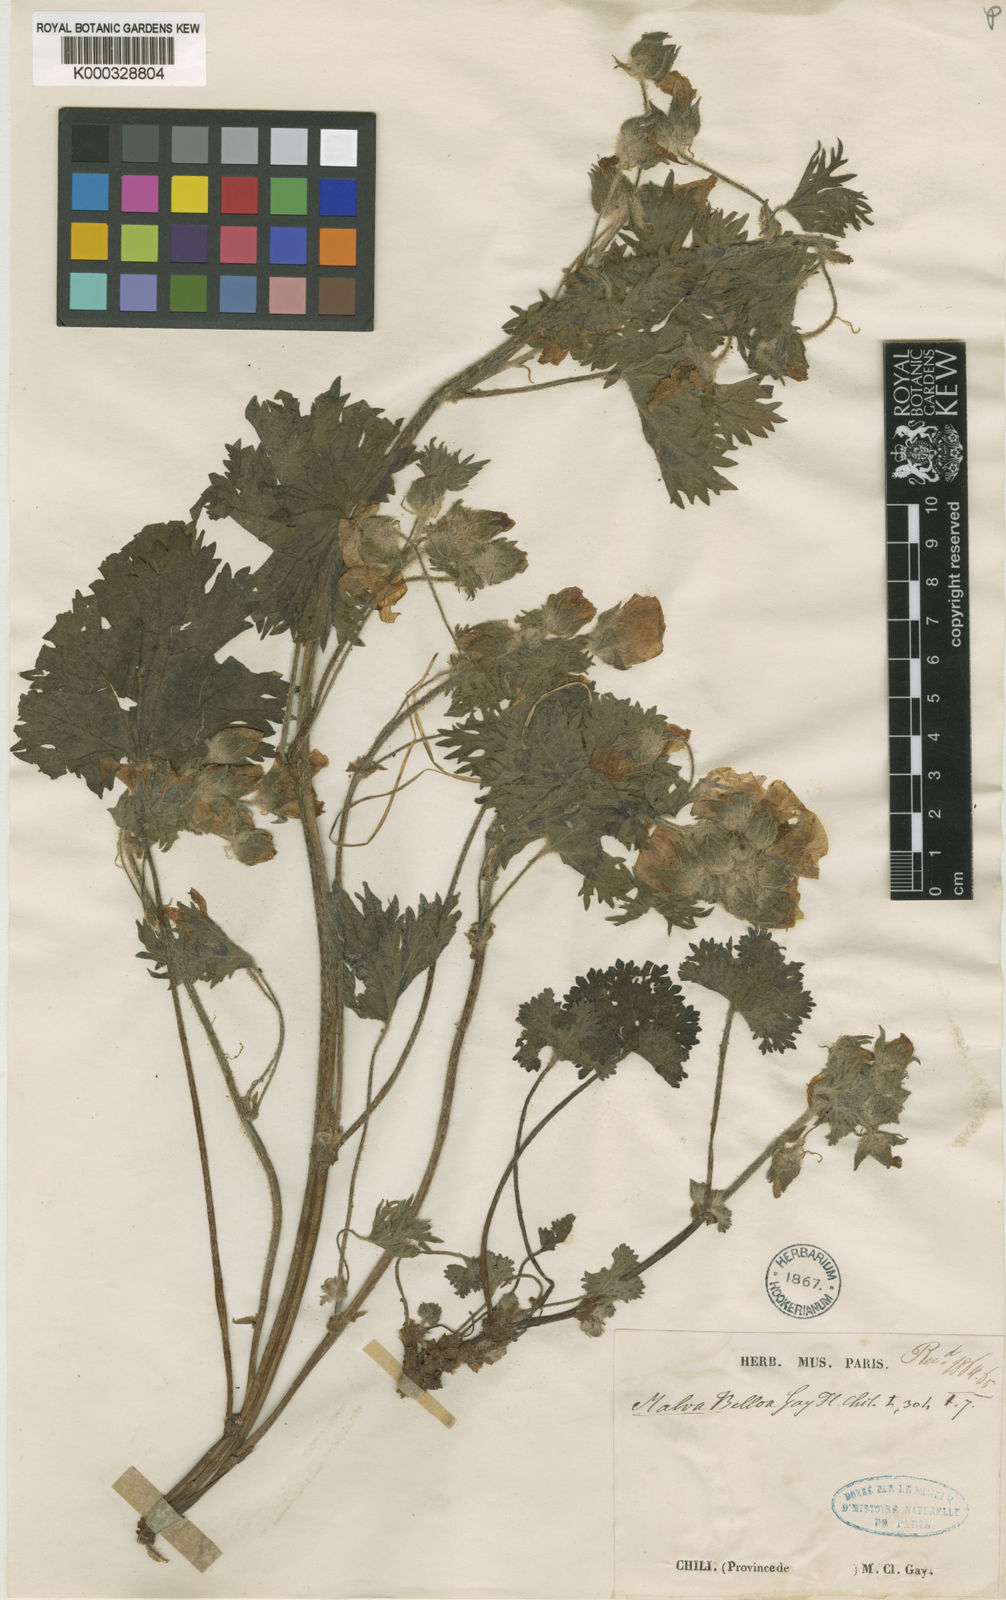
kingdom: Plantae
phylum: Tracheophyta
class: Magnoliopsida
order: Malvales
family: Malvaceae
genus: Sphaeralcea
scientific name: Sphaeralcea purpurata
